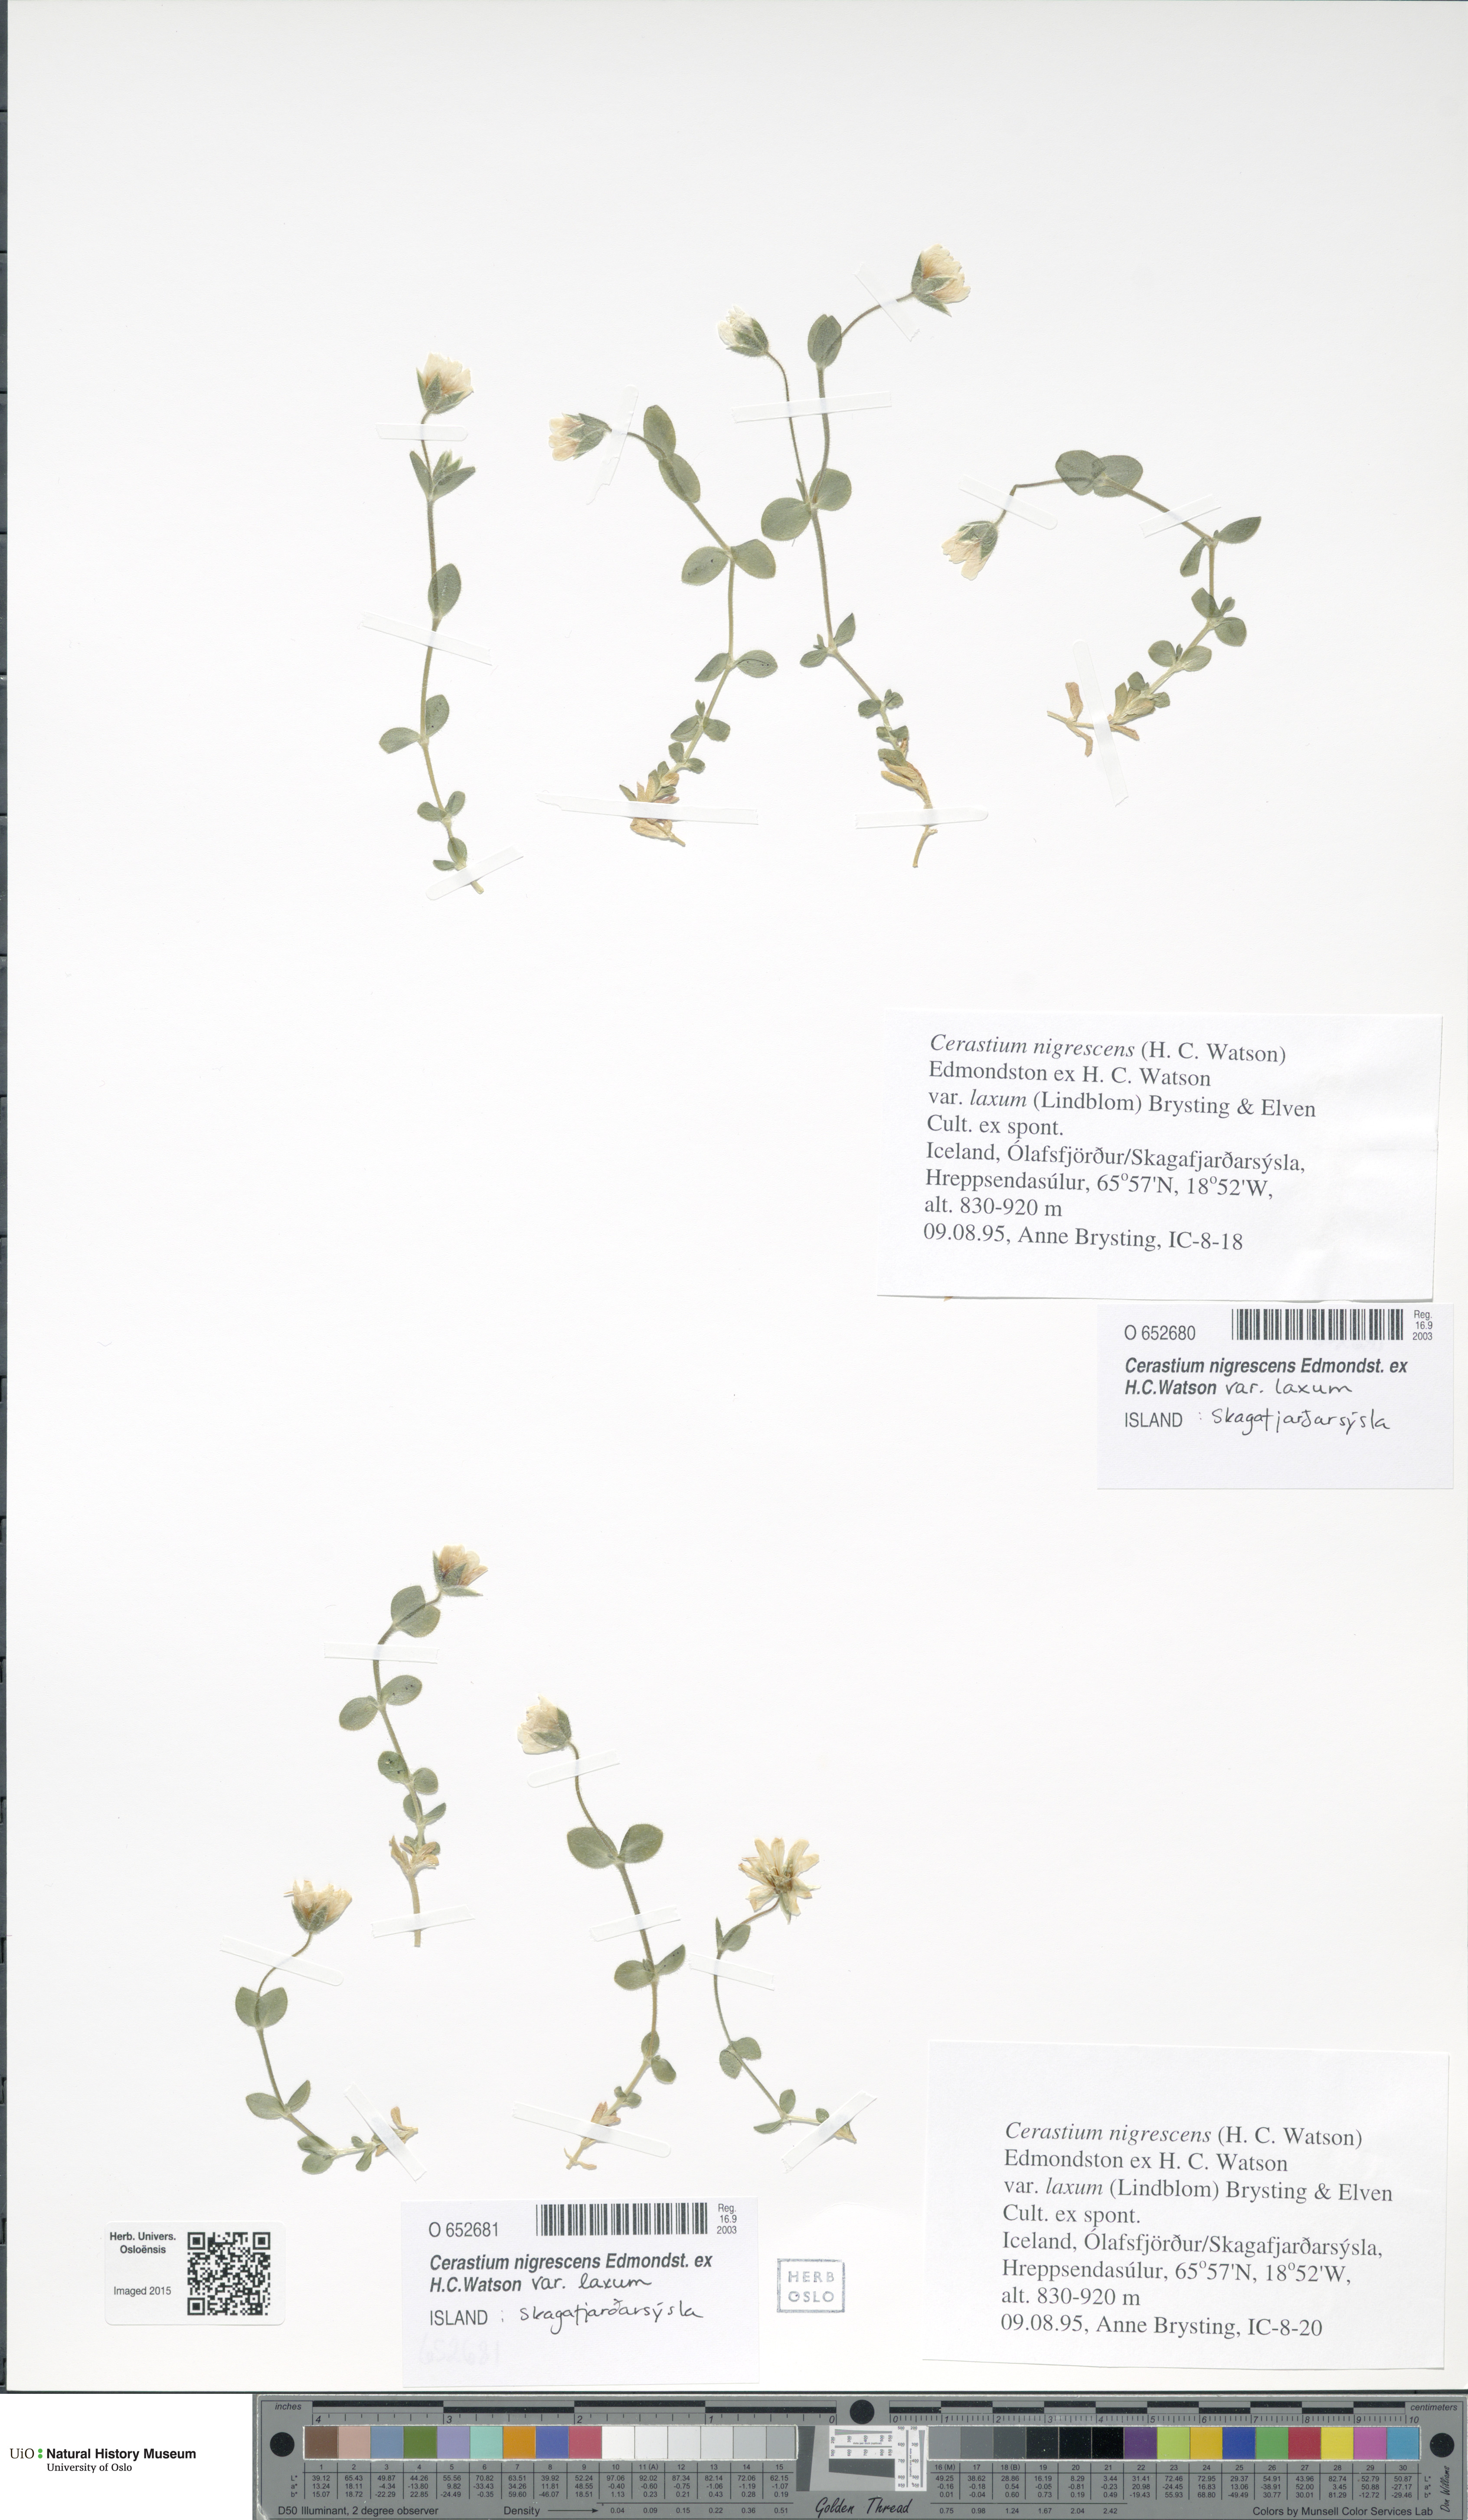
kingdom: Plantae
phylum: Tracheophyta
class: Magnoliopsida
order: Caryophyllales
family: Caryophyllaceae
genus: Cerastium
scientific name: Cerastium nigrescens
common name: Shetland mouse-ear
